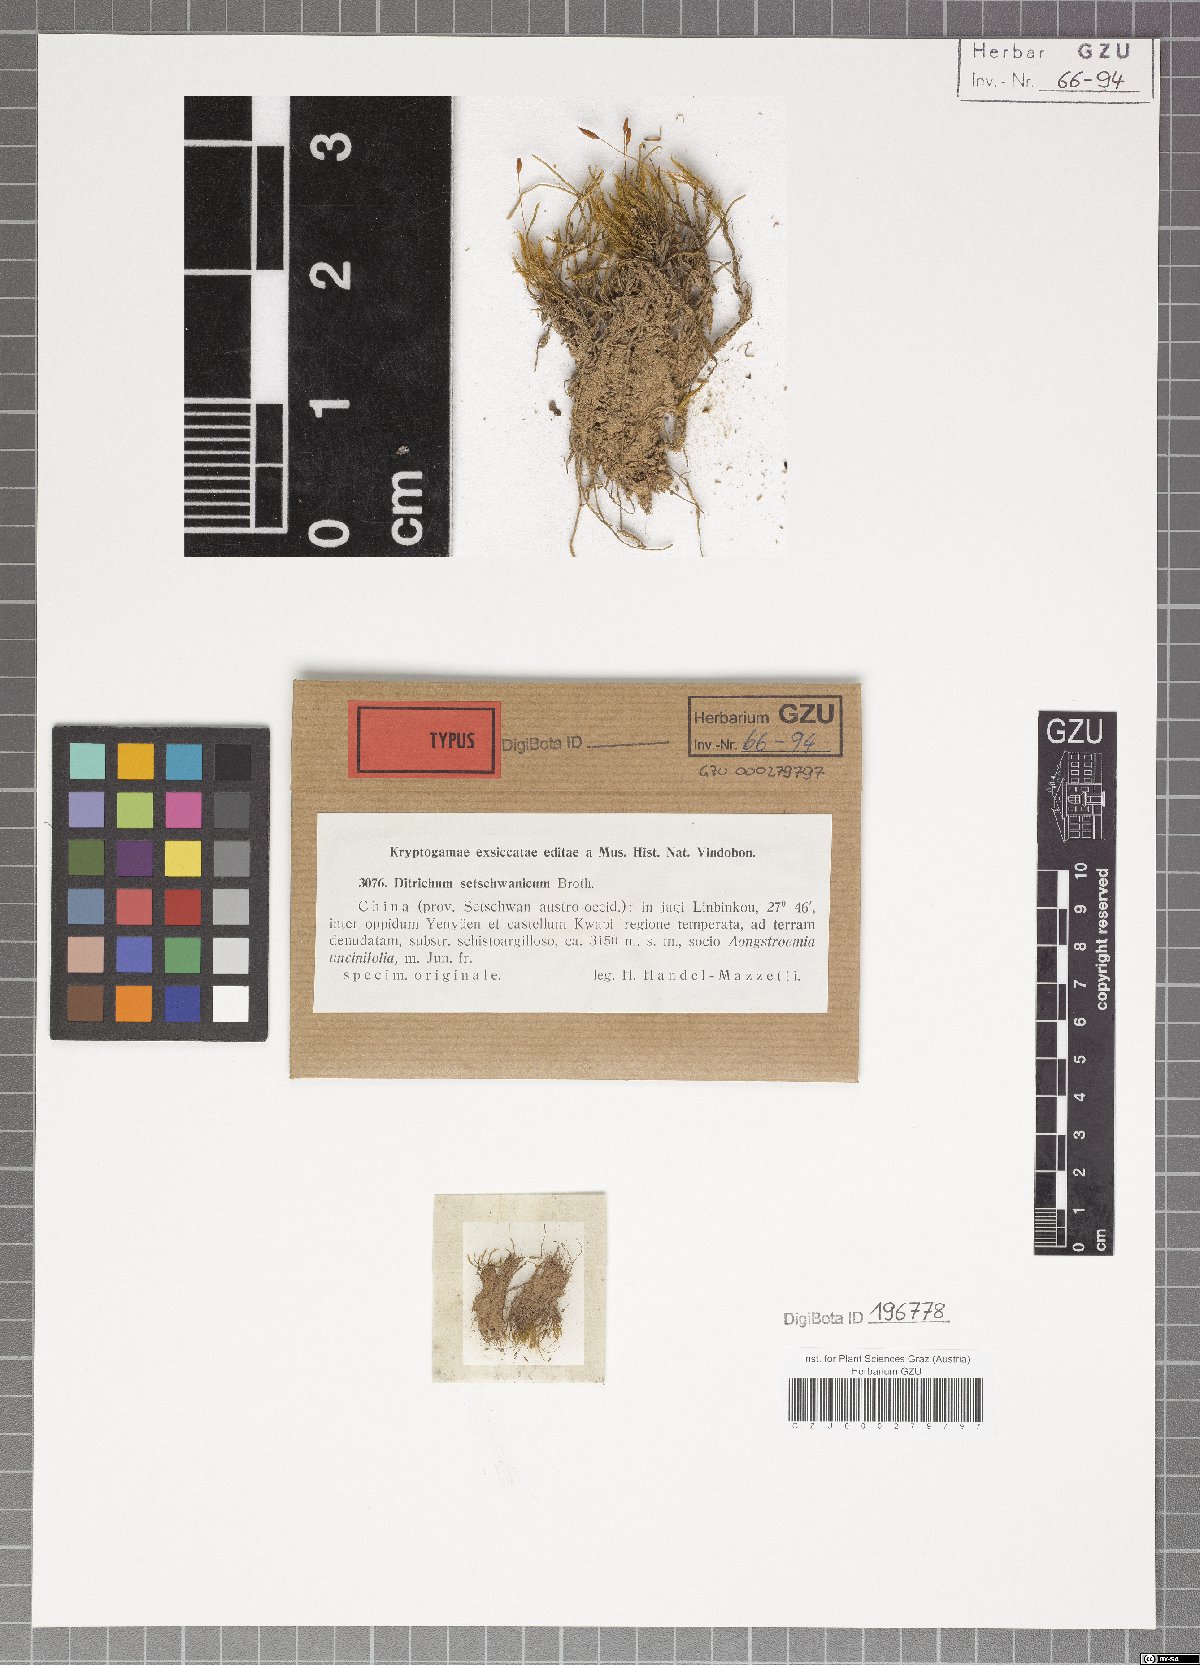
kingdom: Plantae
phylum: Bryophyta
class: Bryopsida
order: Dicranales
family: Ditrichaceae
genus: Ditrichum
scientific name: Ditrichum pusillum
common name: Brown cow-hair moss
